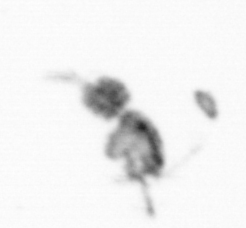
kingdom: Animalia
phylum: Arthropoda
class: Copepoda
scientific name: Copepoda
